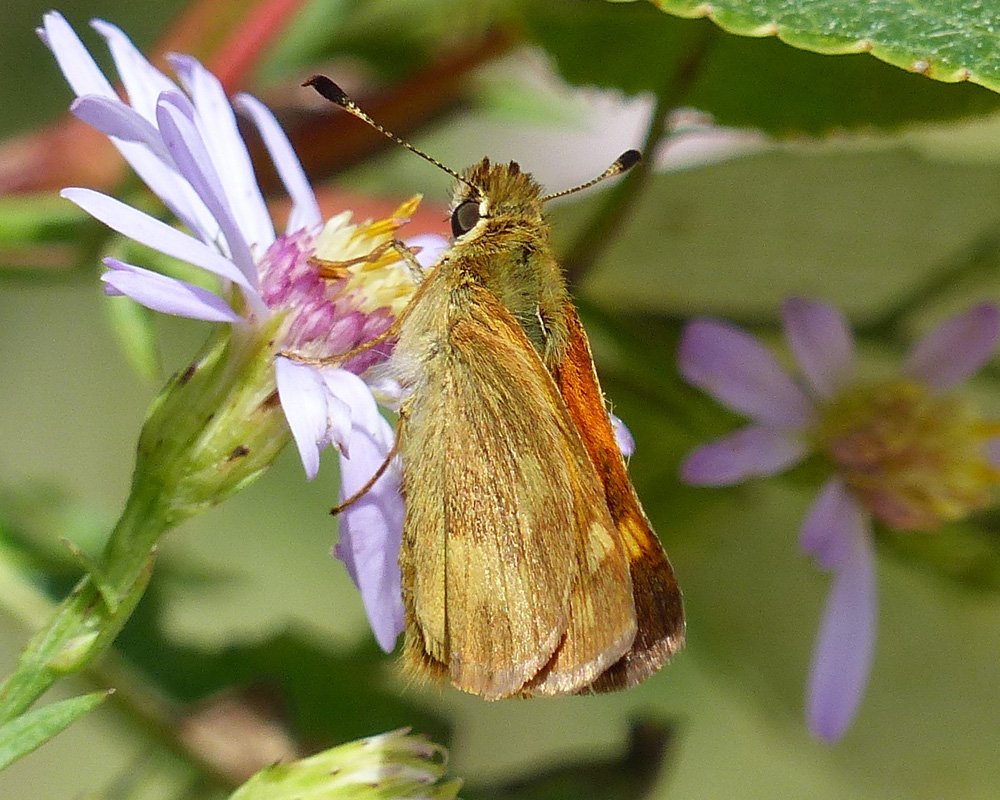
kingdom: Animalia
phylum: Arthropoda
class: Insecta
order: Lepidoptera
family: Hesperiidae
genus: Ochlodes
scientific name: Ochlodes sylvanoides
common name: Woodland Skipper
